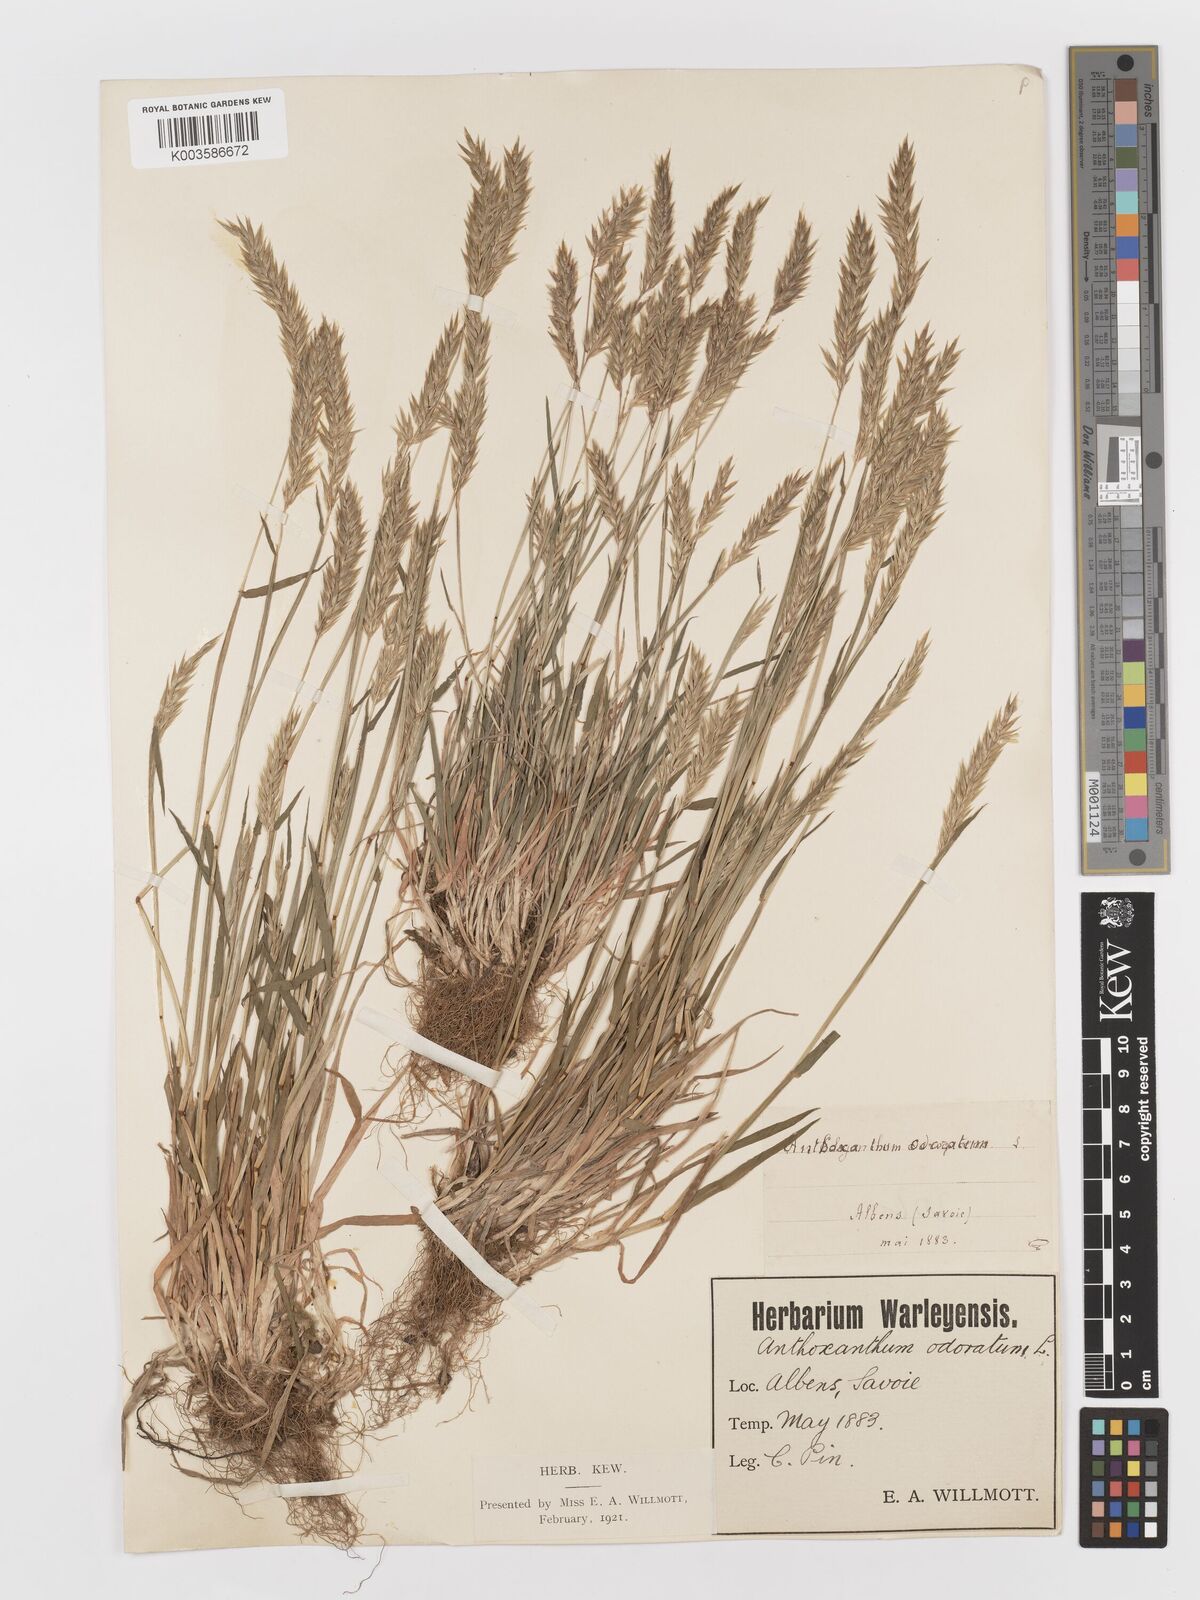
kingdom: Plantae
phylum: Tracheophyta
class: Liliopsida
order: Poales
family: Poaceae
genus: Anthoxanthum
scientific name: Anthoxanthum odoratum
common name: Sweet vernalgrass
